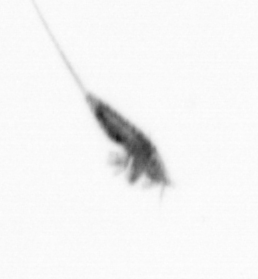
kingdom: Animalia
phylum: Arthropoda
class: Copepoda
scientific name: Copepoda
